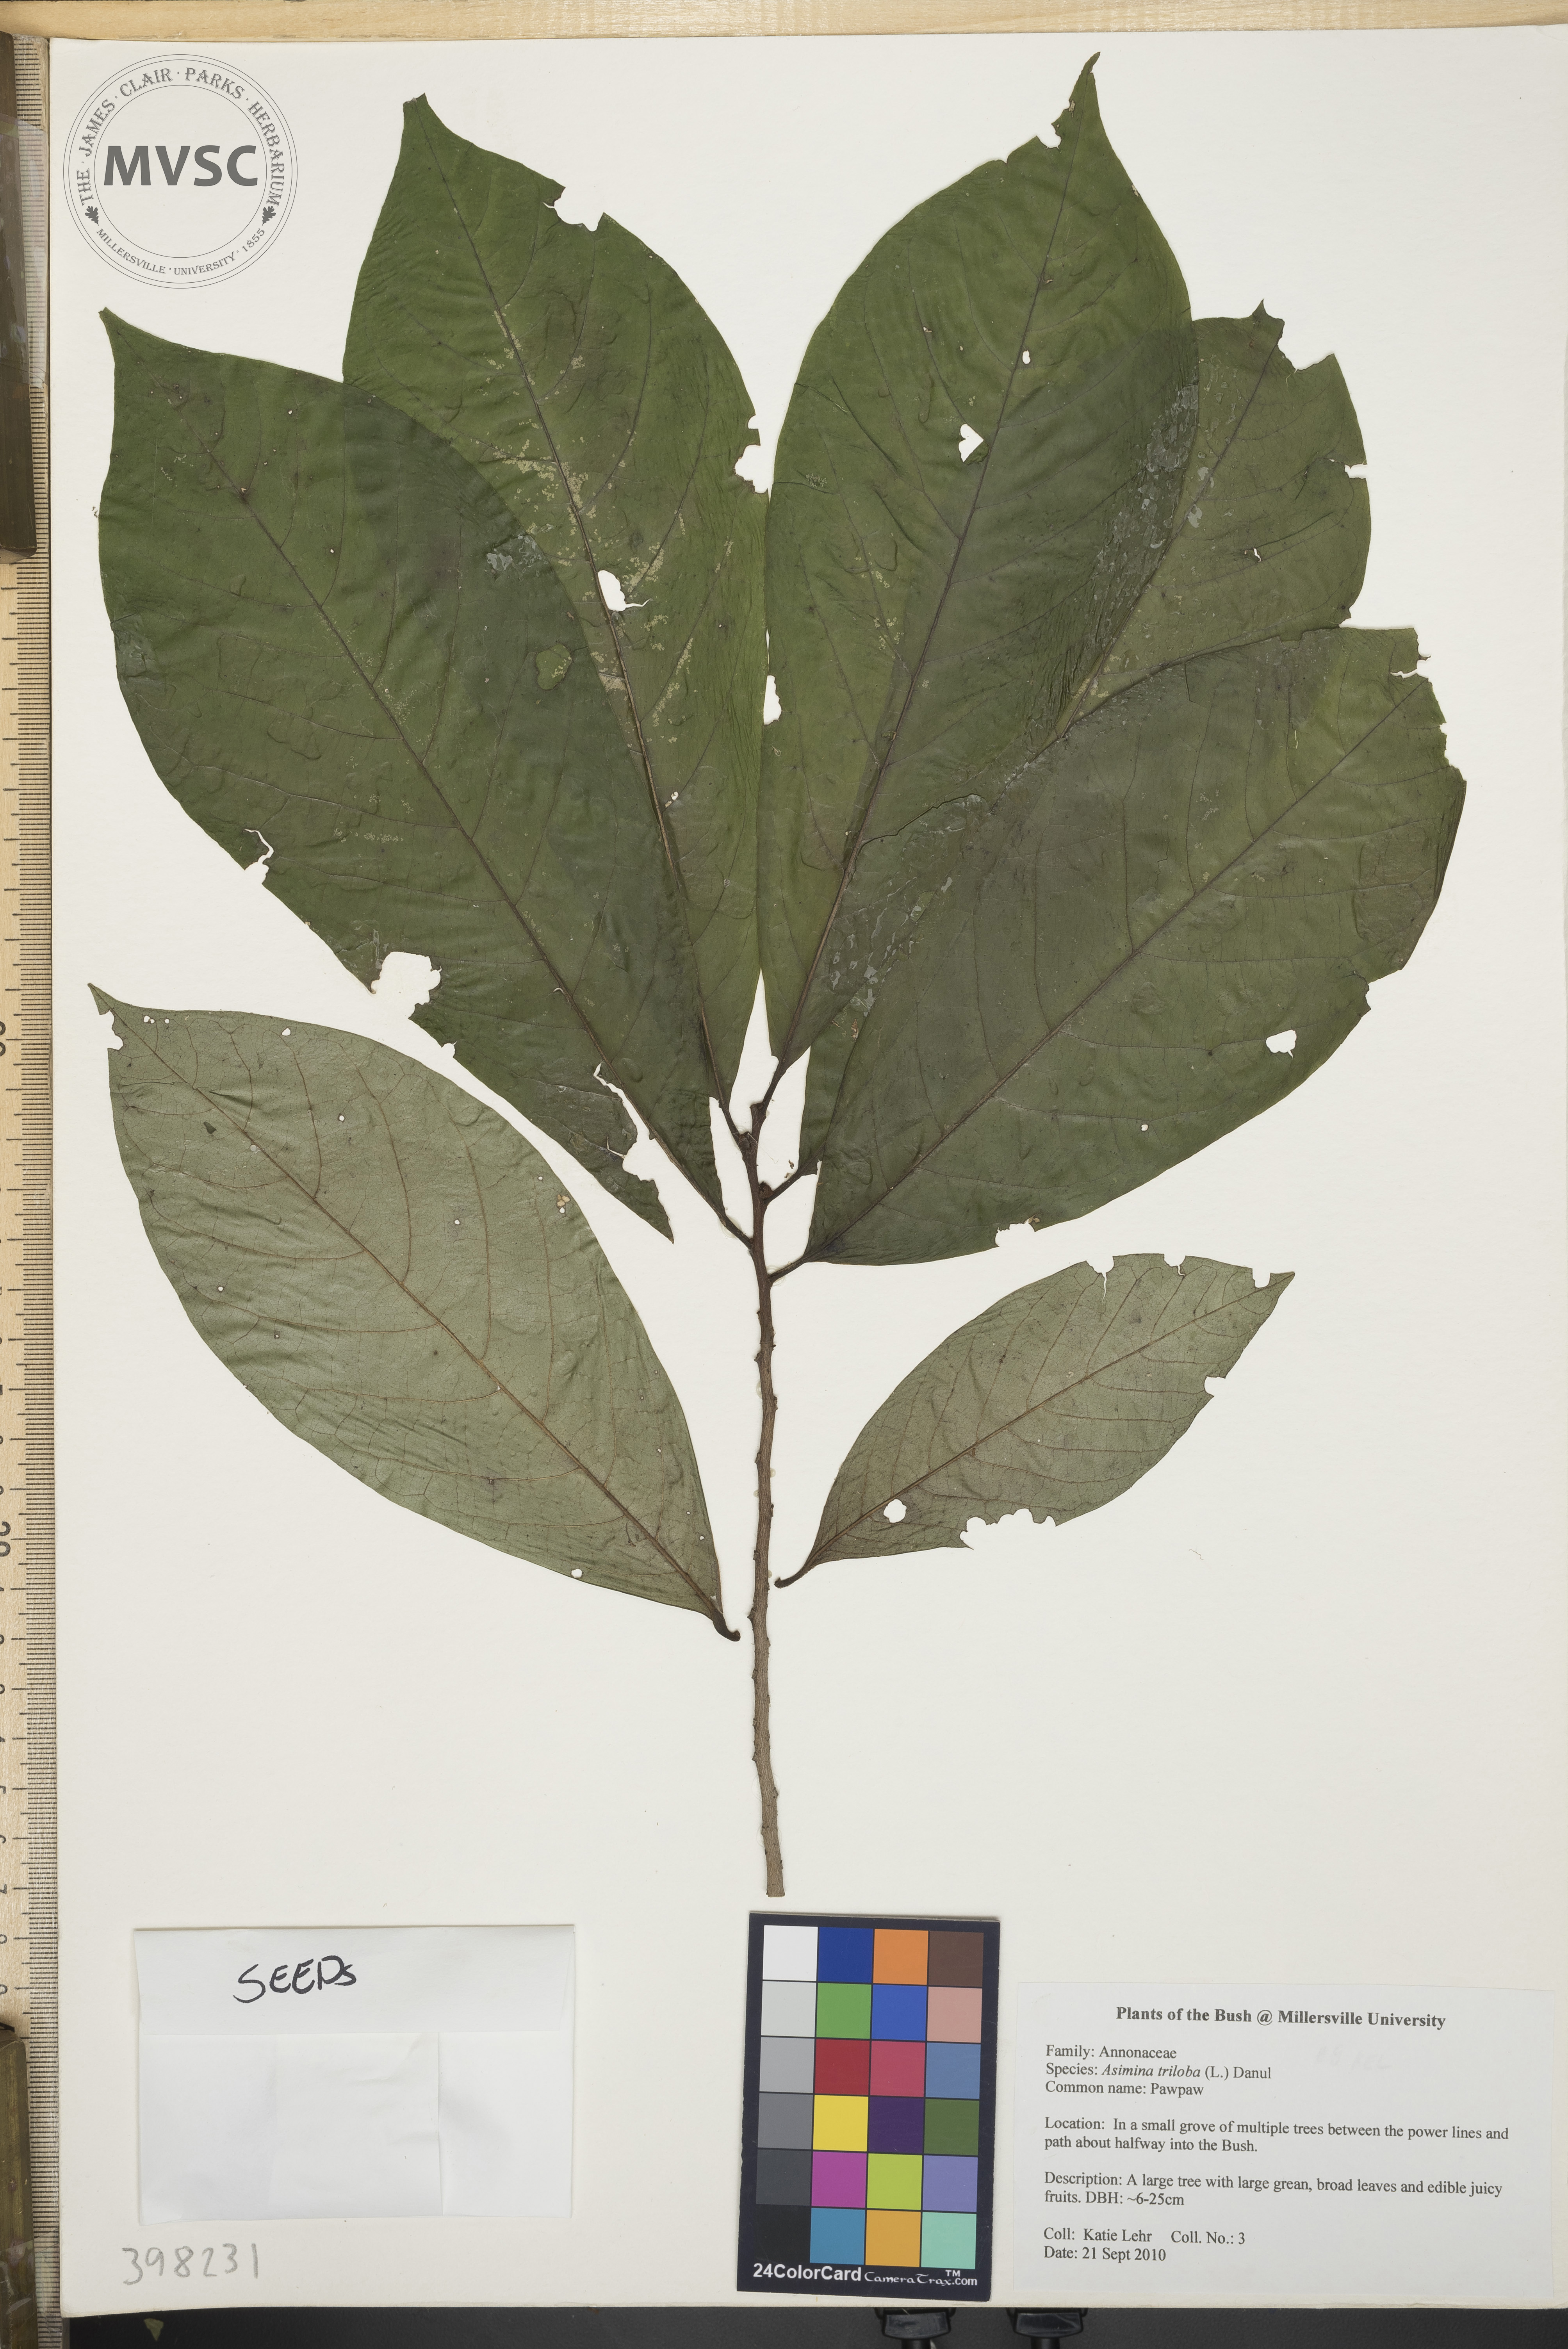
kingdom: Plantae
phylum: Tracheophyta
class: Magnoliopsida
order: Magnoliales
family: Annonaceae
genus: Asimina
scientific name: Asimina triloba
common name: Pawpaw
